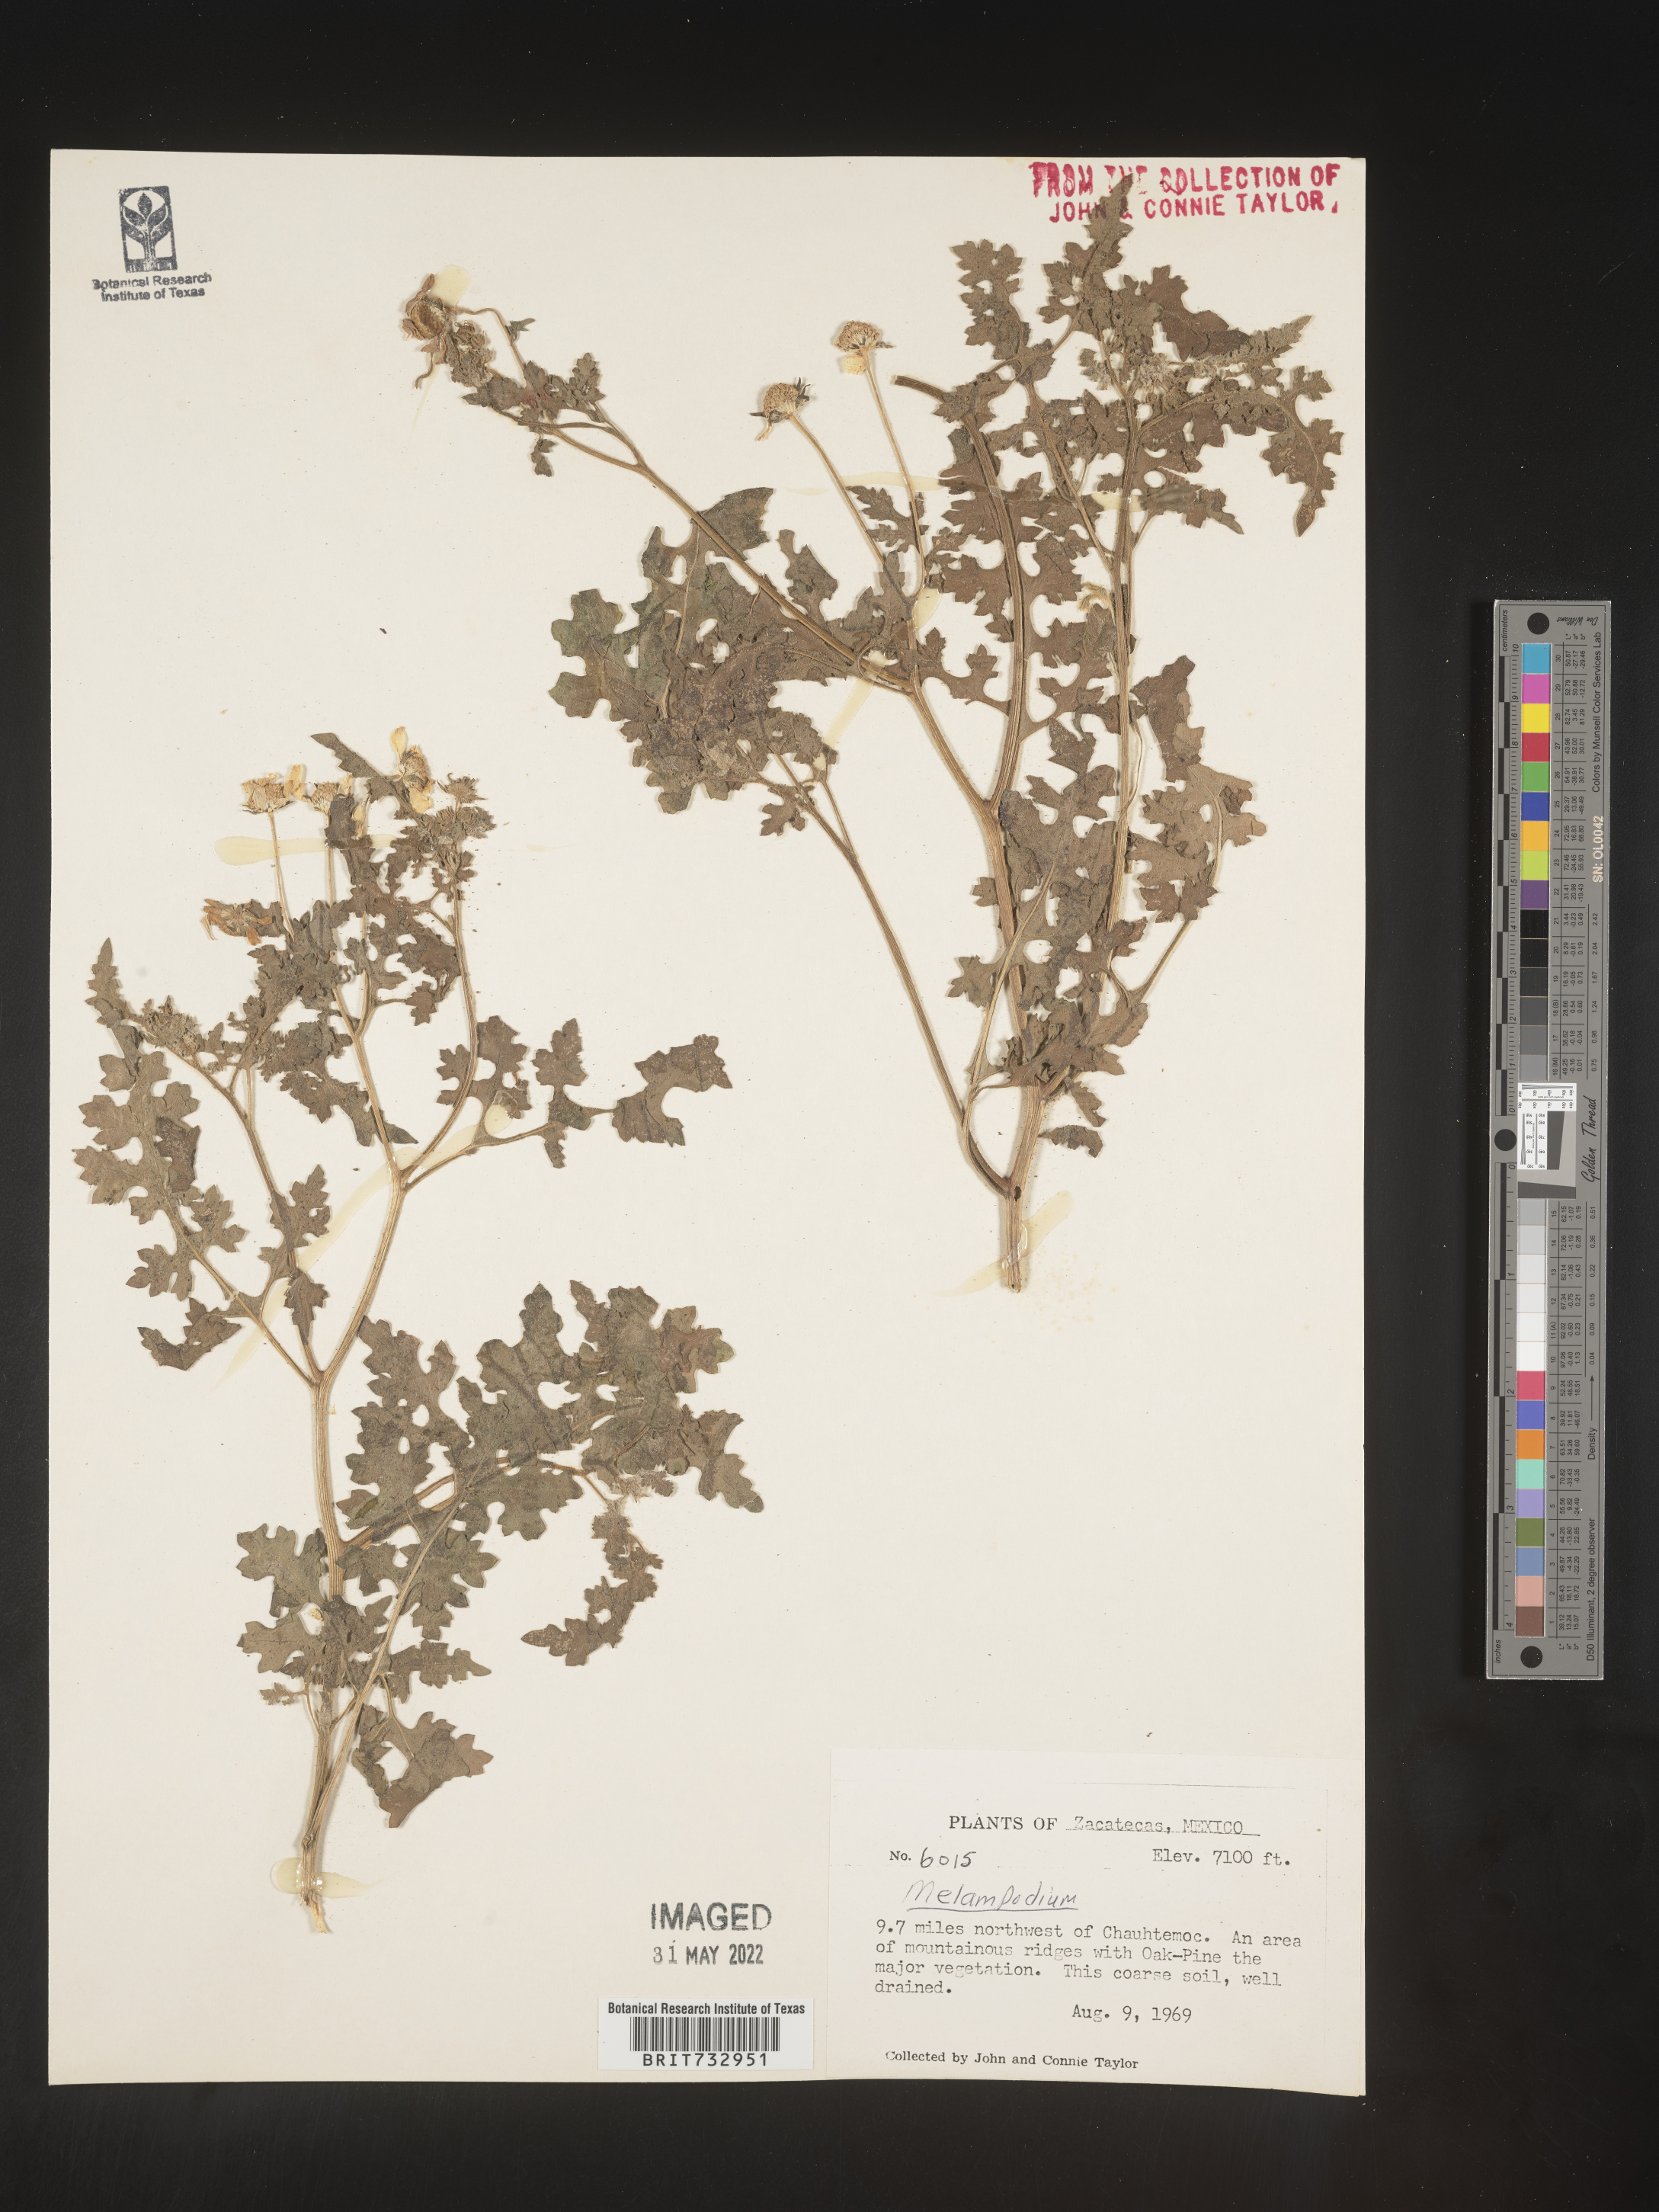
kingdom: Plantae
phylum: Tracheophyta
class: Magnoliopsida
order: Asterales
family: Asteraceae
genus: Melampodium
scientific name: Melampodium
